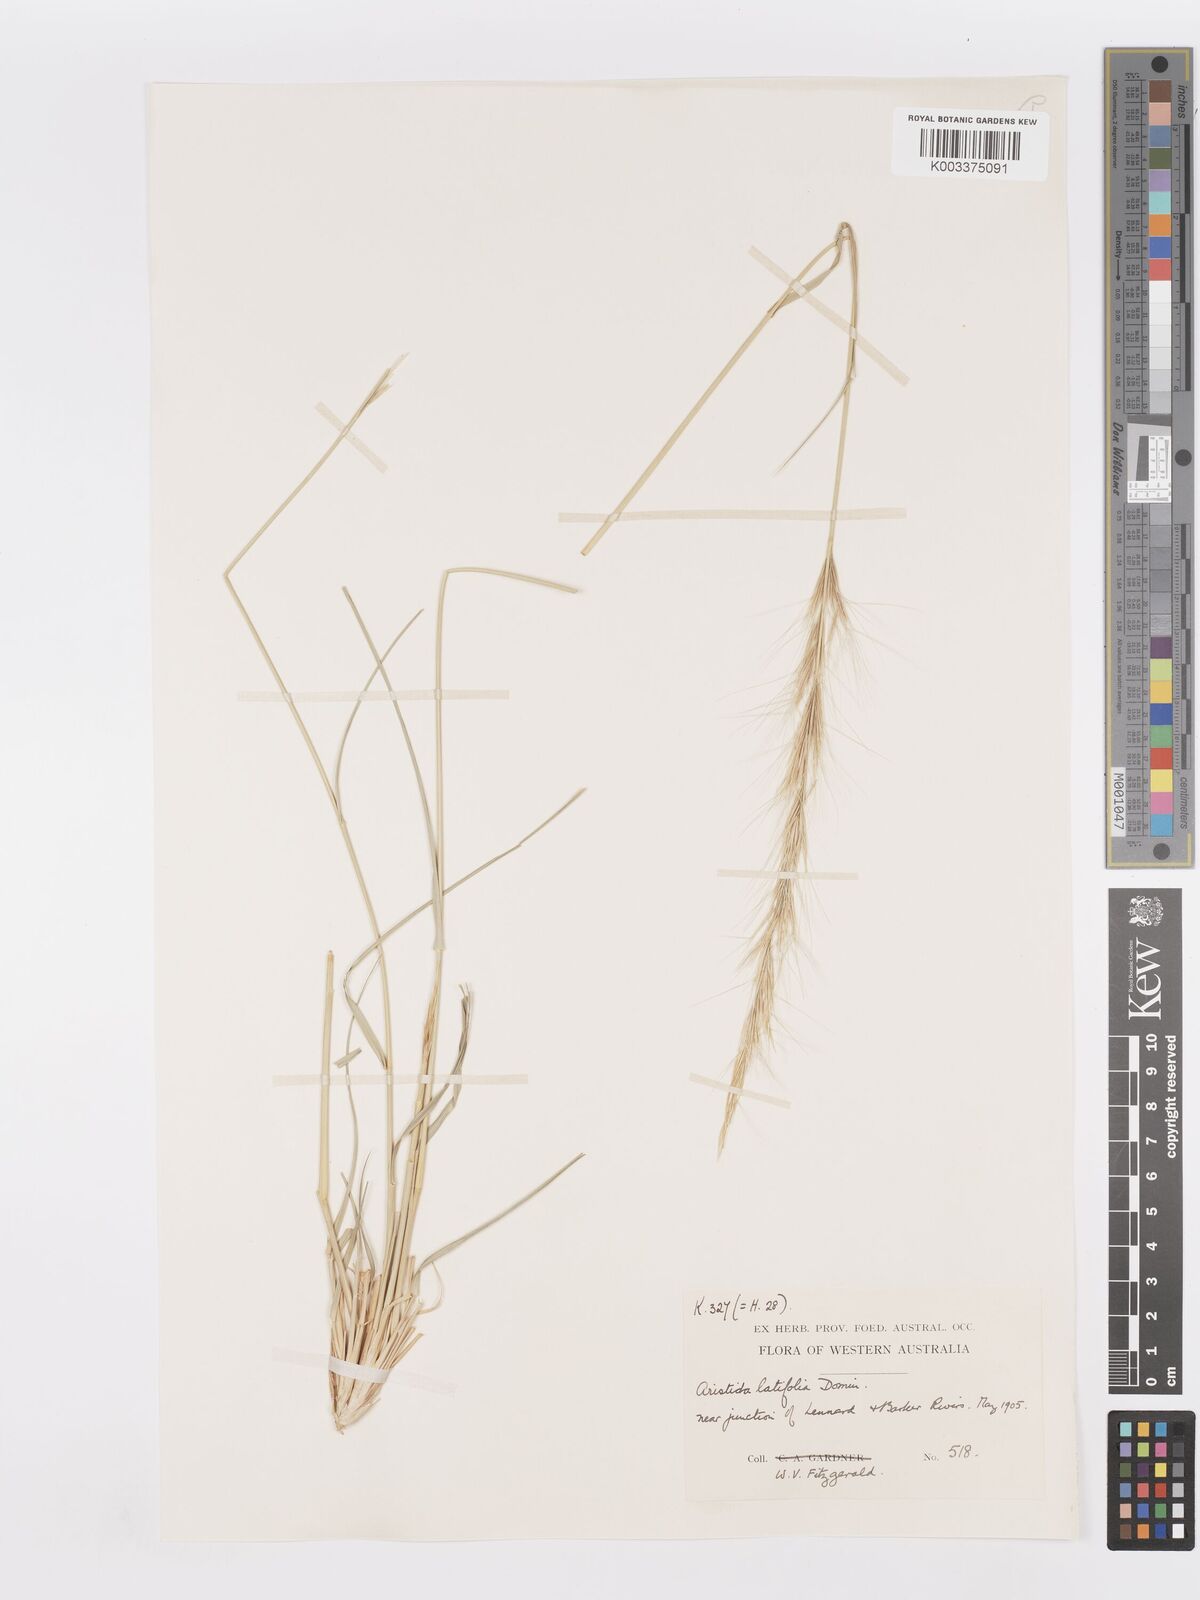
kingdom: Plantae
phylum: Tracheophyta
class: Liliopsida
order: Poales
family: Poaceae
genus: Aristida
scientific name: Aristida latifolia
